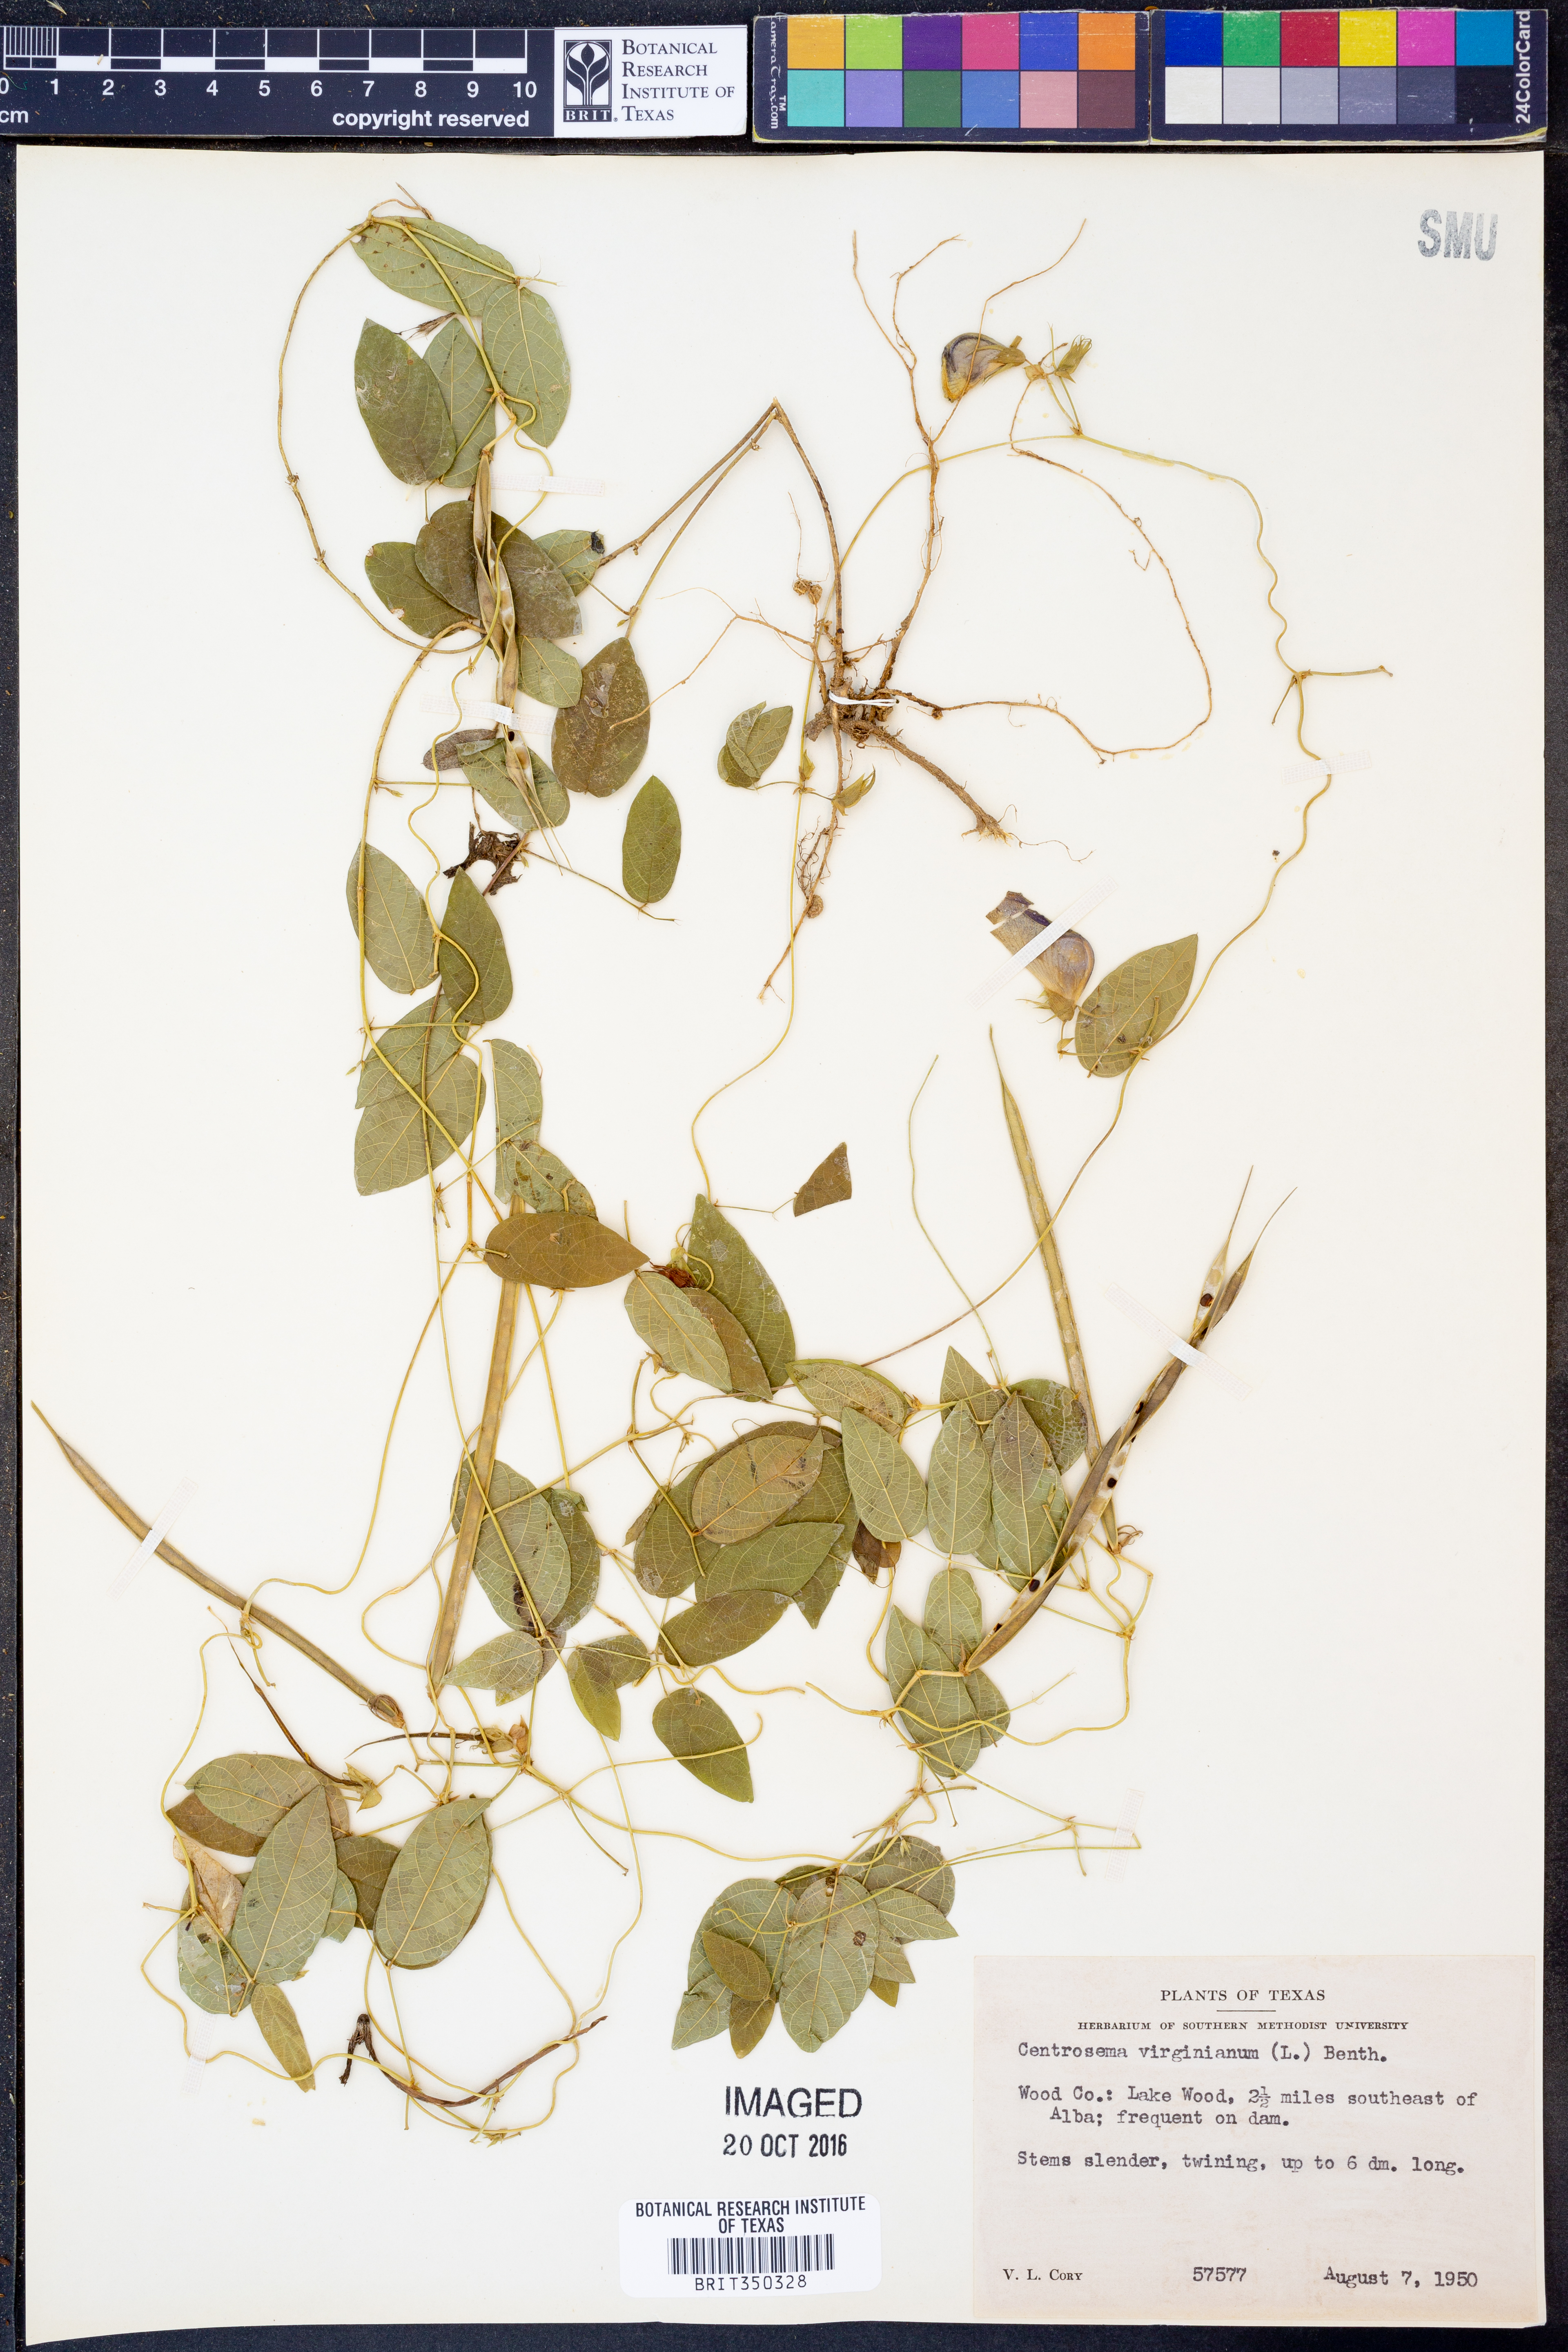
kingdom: Plantae
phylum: Tracheophyta
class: Magnoliopsida
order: Fabales
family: Fabaceae
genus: Centrosema
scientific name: Centrosema virginianum
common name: Butterfly-pea
